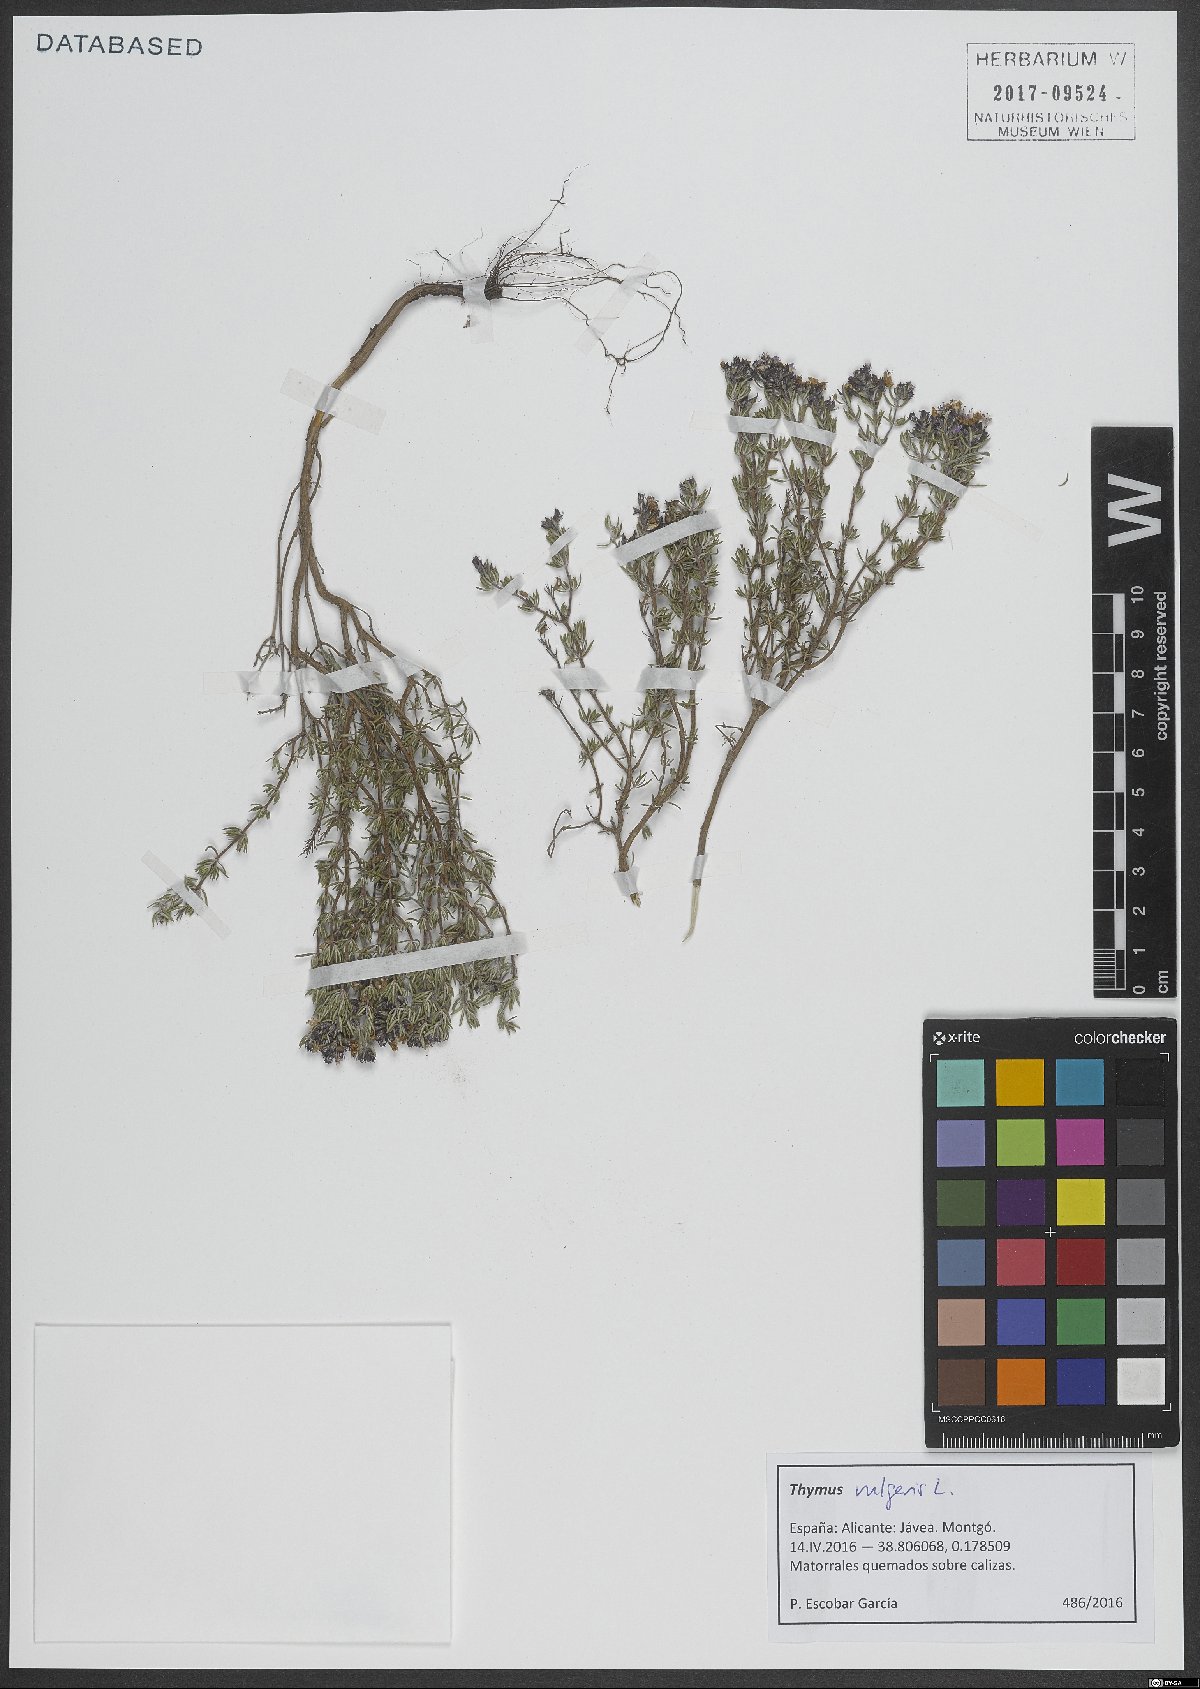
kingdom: Plantae
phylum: Tracheophyta
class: Magnoliopsida
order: Lamiales
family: Lamiaceae
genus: Thymus
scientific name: Thymus vulgaris
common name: Garden thyme
